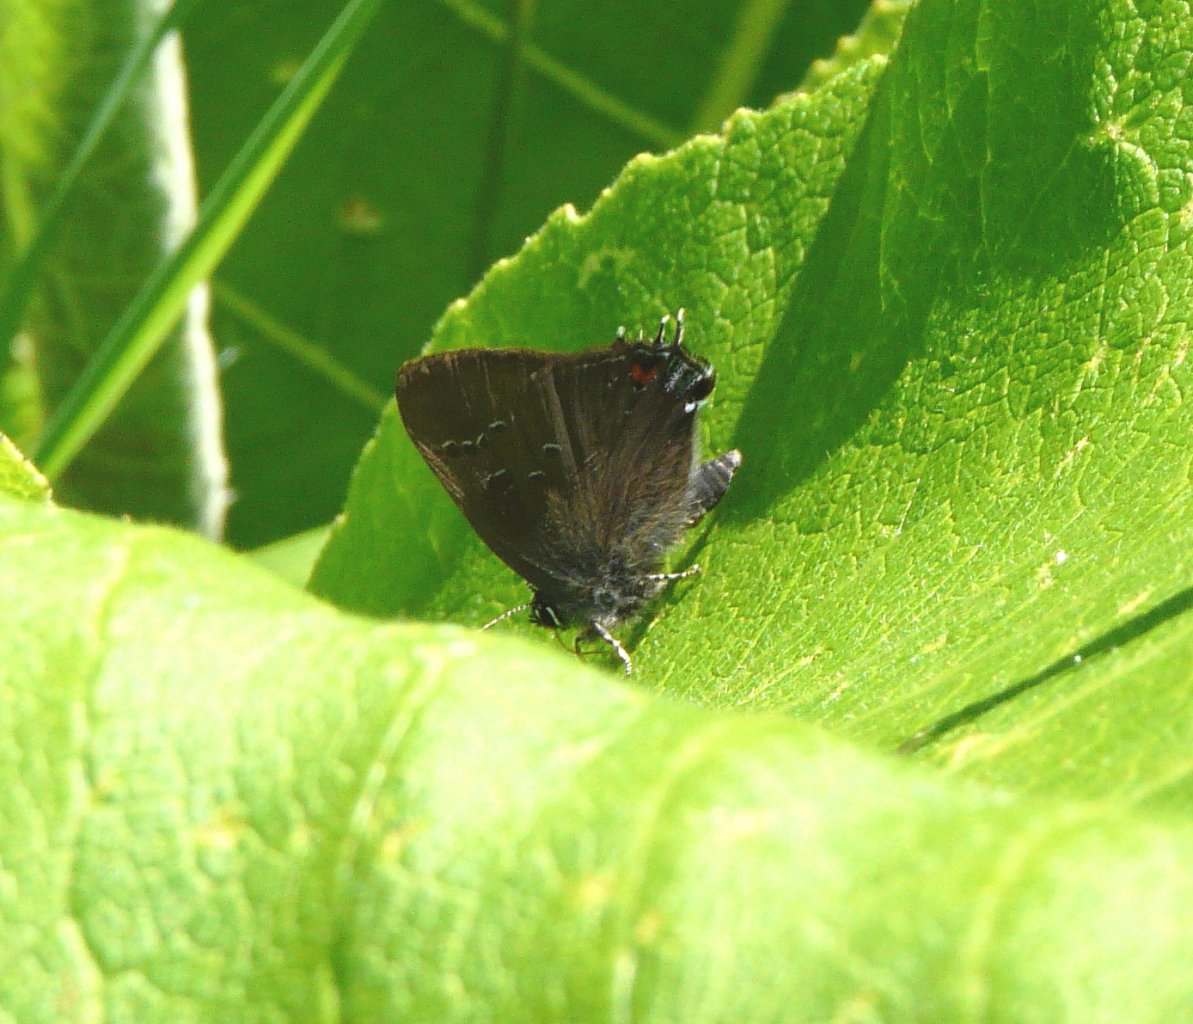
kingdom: Animalia
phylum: Arthropoda
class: Insecta
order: Lepidoptera
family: Lycaenidae
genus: Satyrium
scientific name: Satyrium
